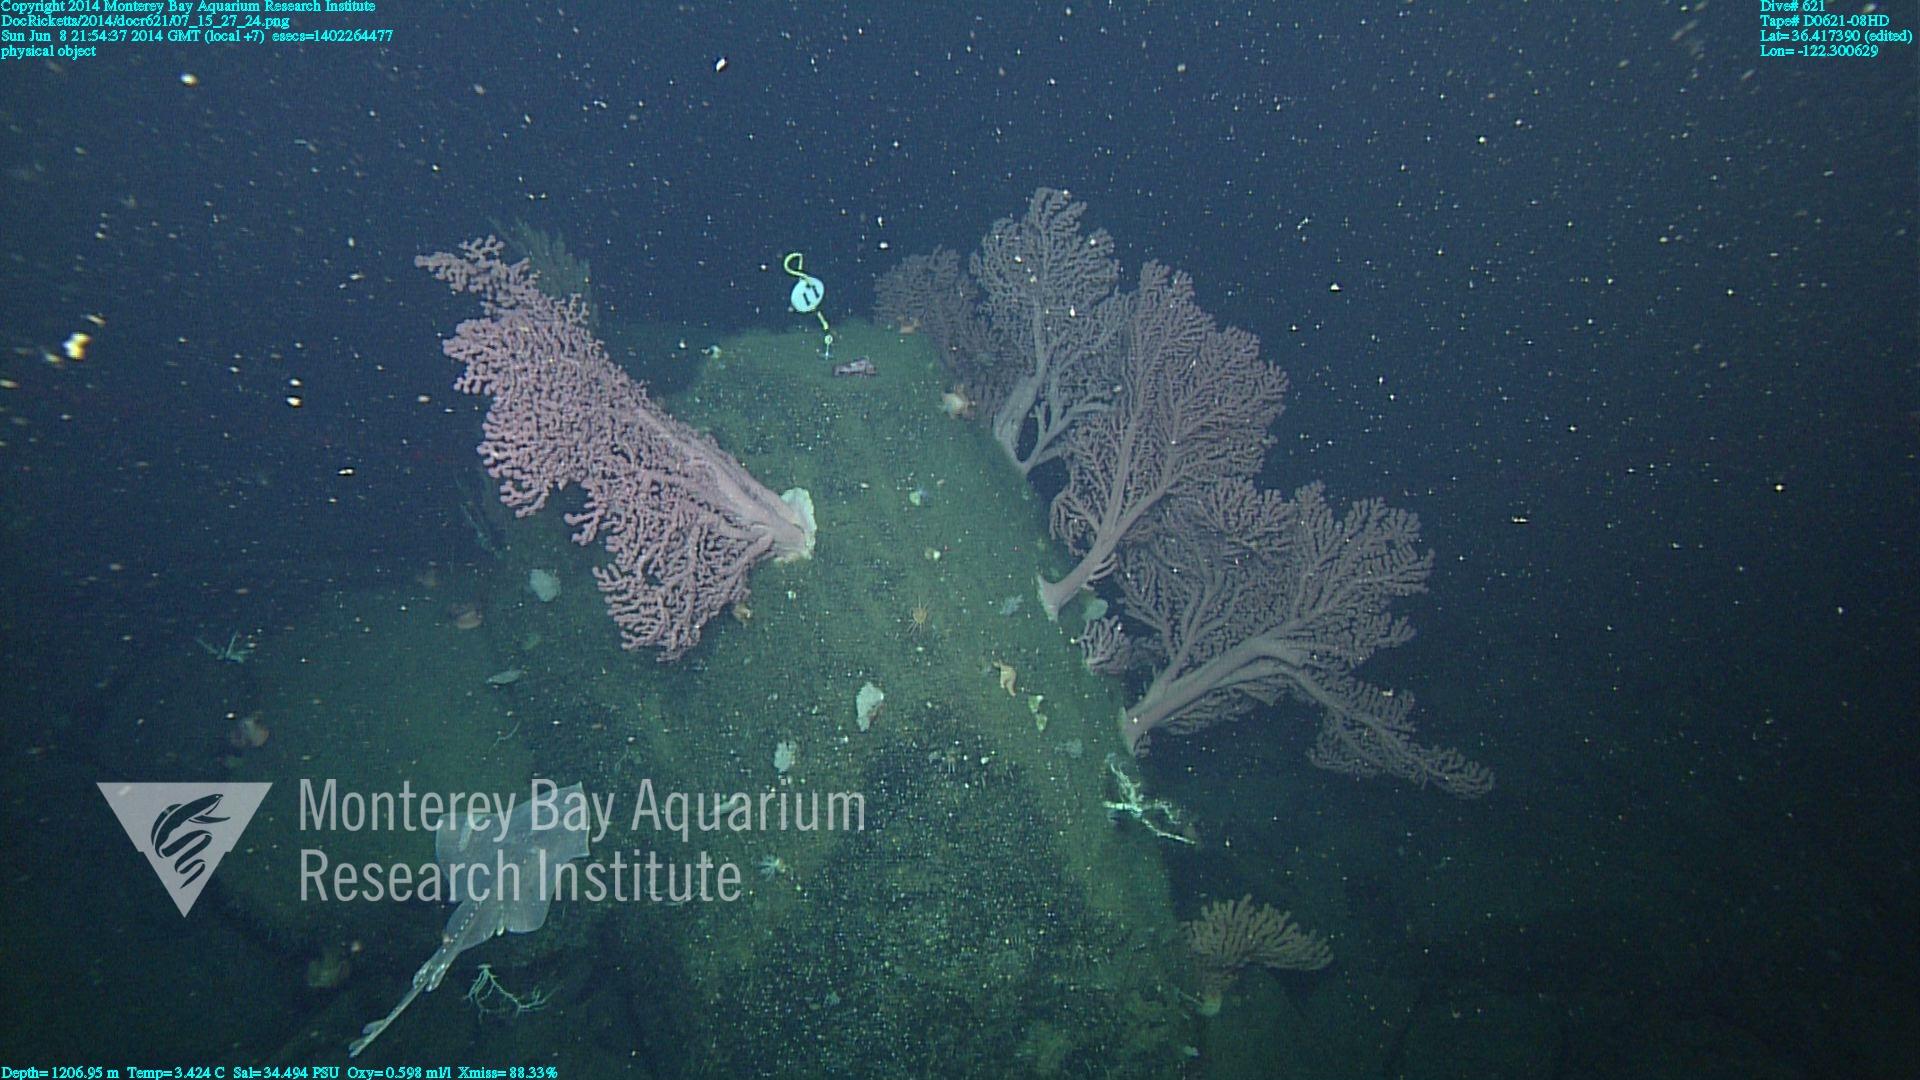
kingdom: Animalia
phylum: Cnidaria
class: Anthozoa
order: Scleralcyonacea
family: Coralliidae
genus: Paragorgia
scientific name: Paragorgia arborea
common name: Bubble gum coral
